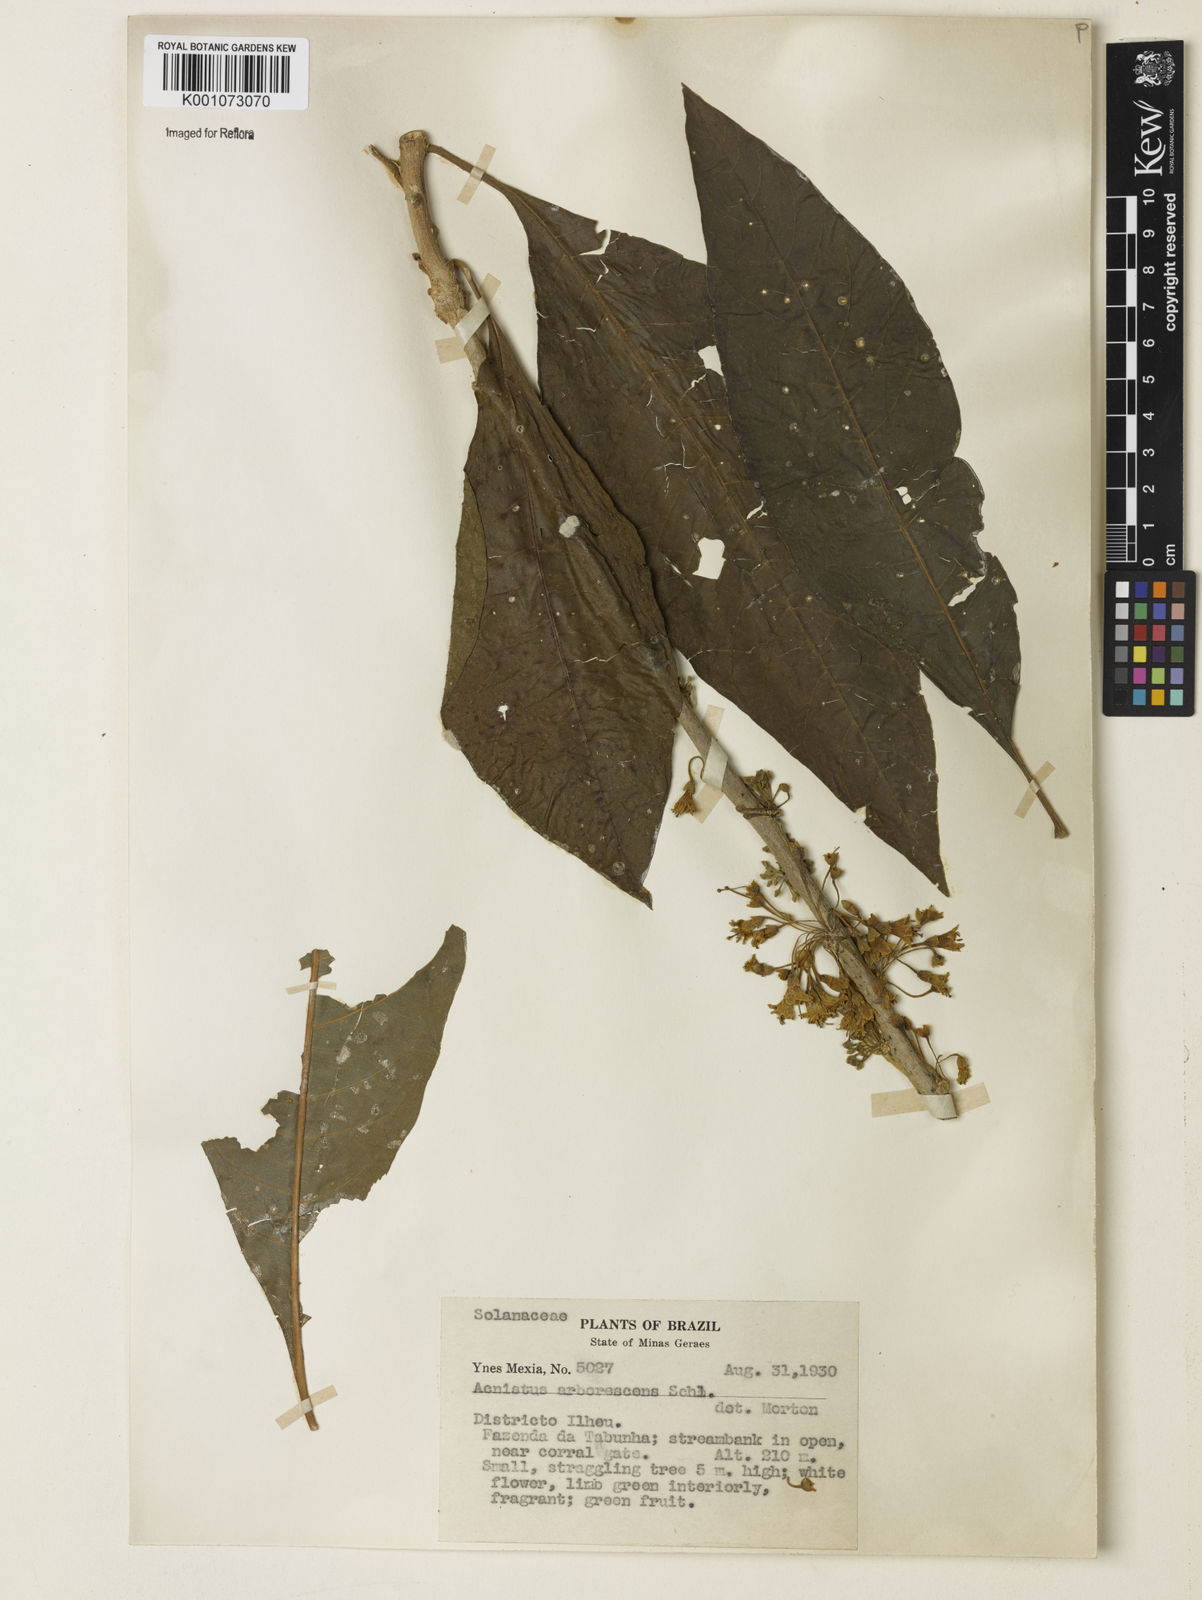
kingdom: Plantae
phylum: Tracheophyta
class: Magnoliopsida
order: Solanales
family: Solanaceae
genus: Iochroma
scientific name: Iochroma arborescens
